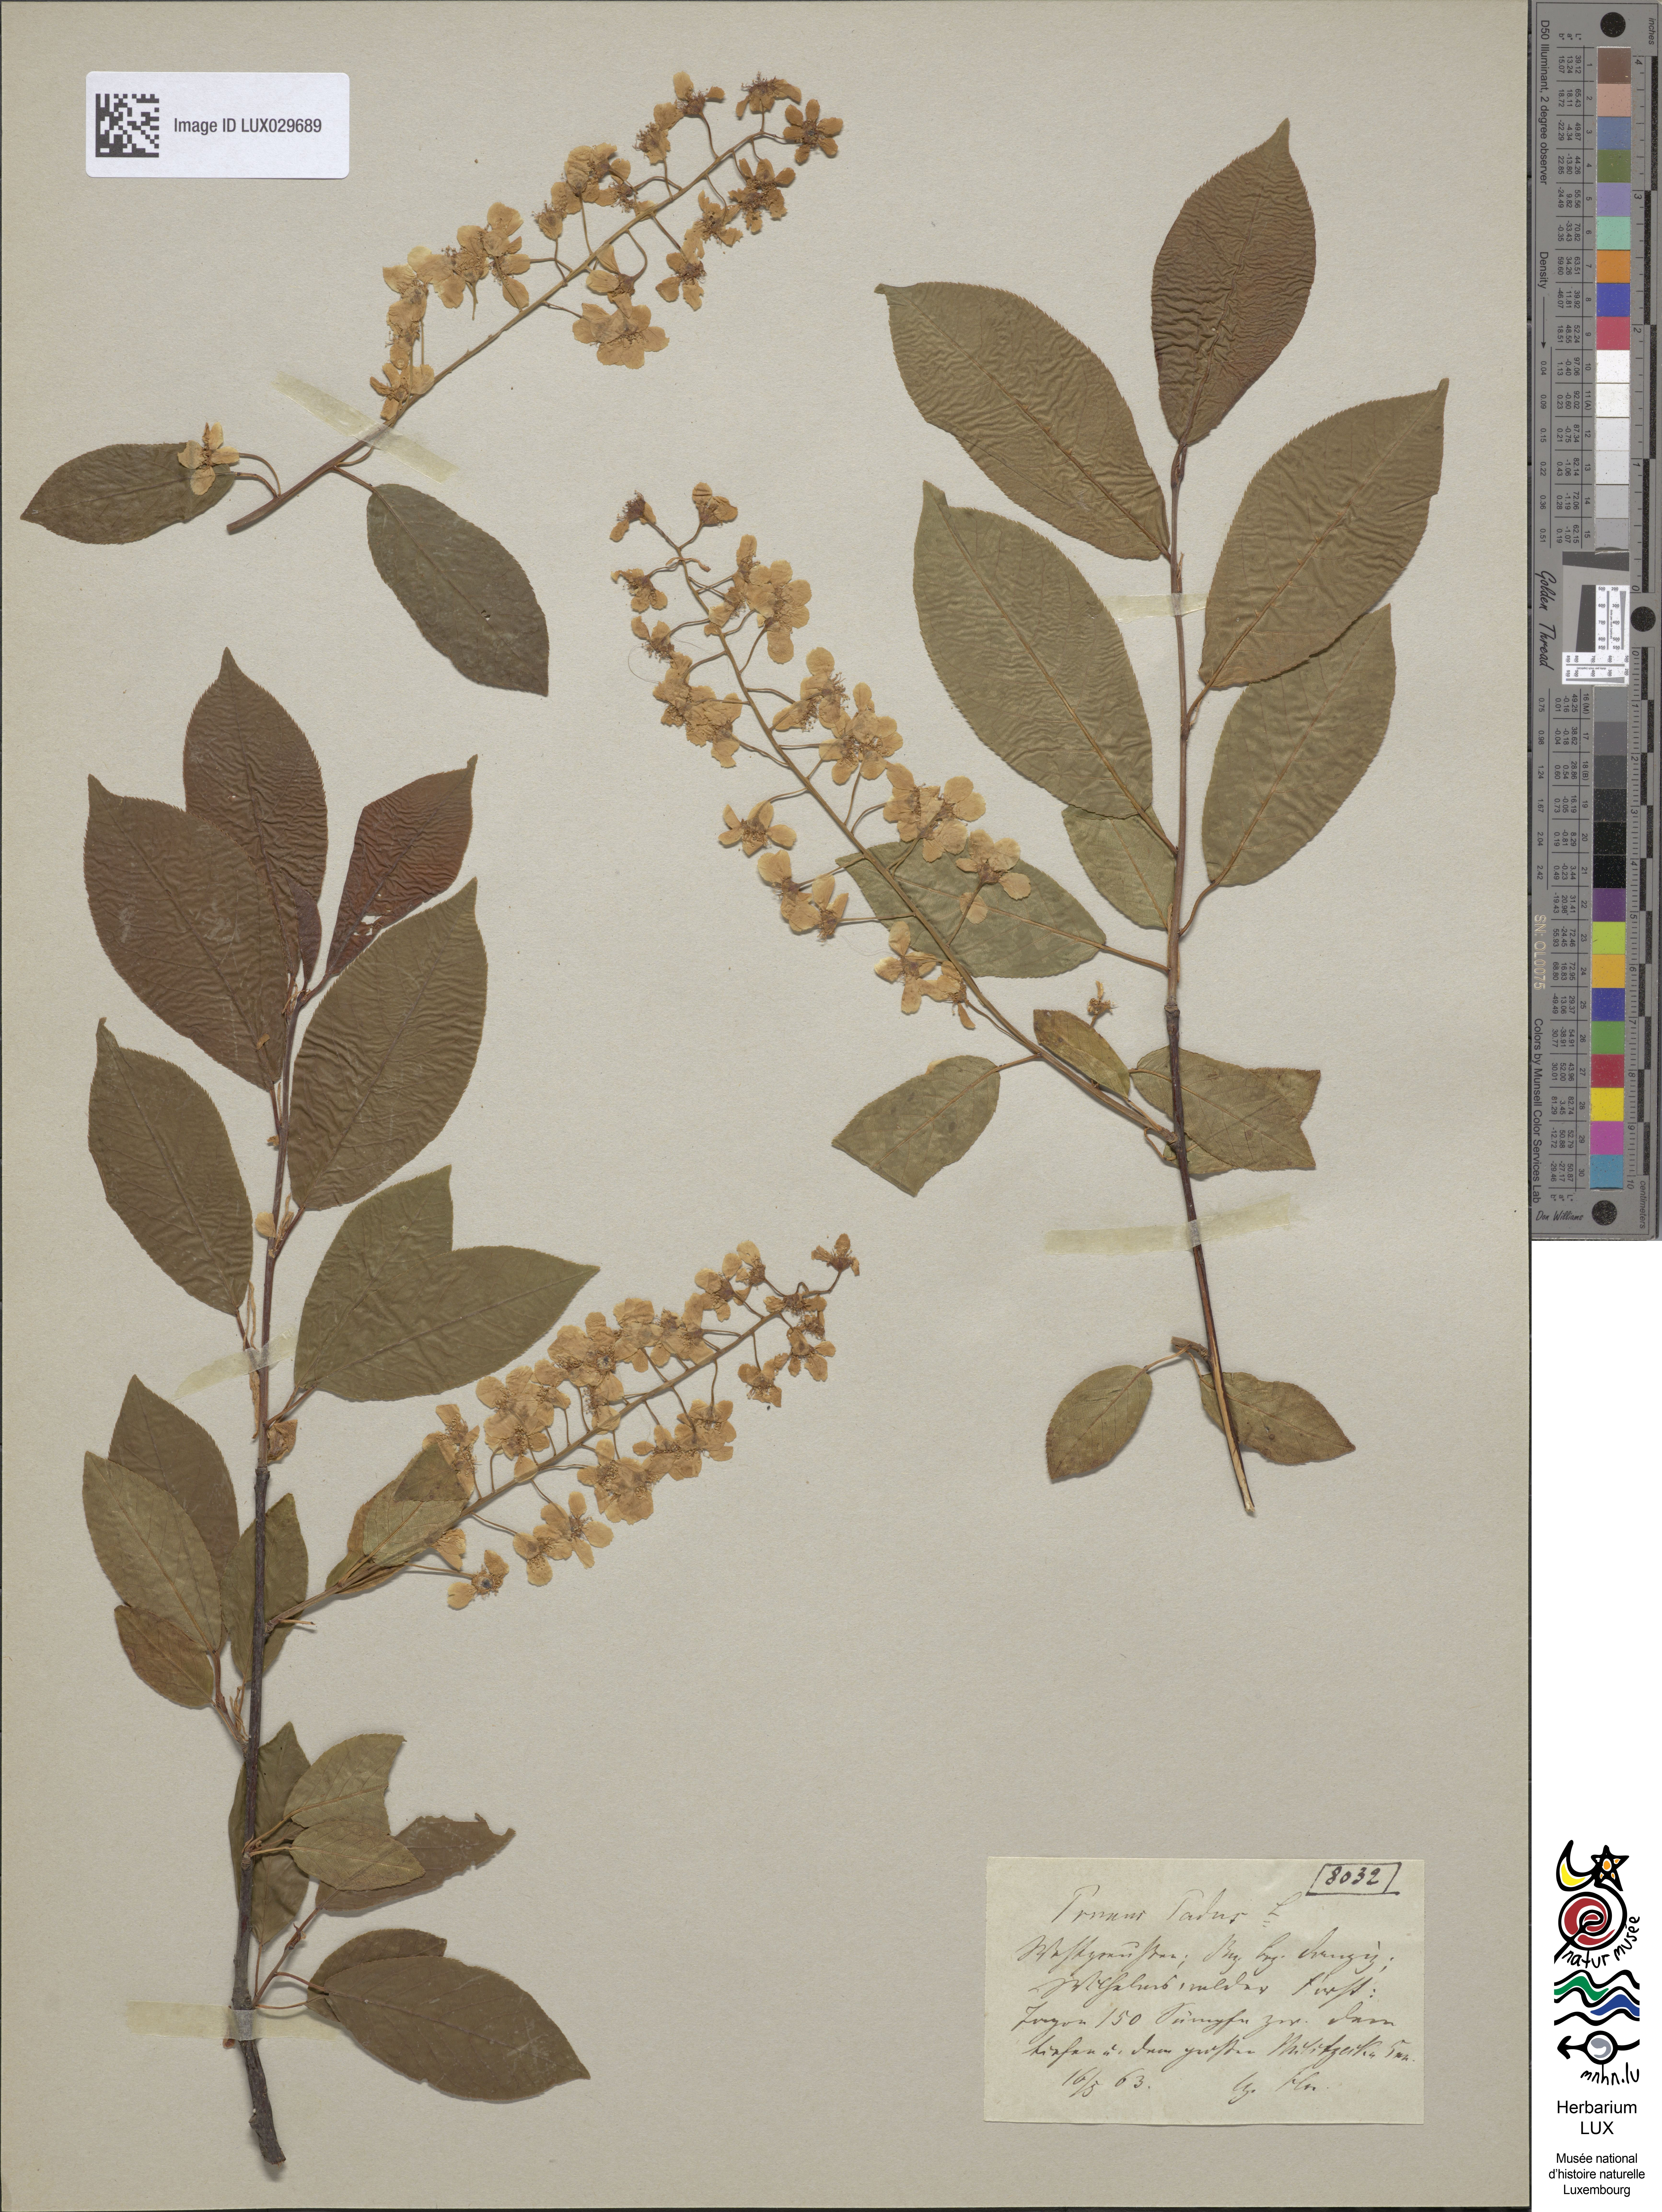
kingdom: Plantae
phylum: Tracheophyta
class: Magnoliopsida
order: Rosales
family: Rosaceae
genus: Prunus
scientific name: Prunus padus
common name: Bird cherry
